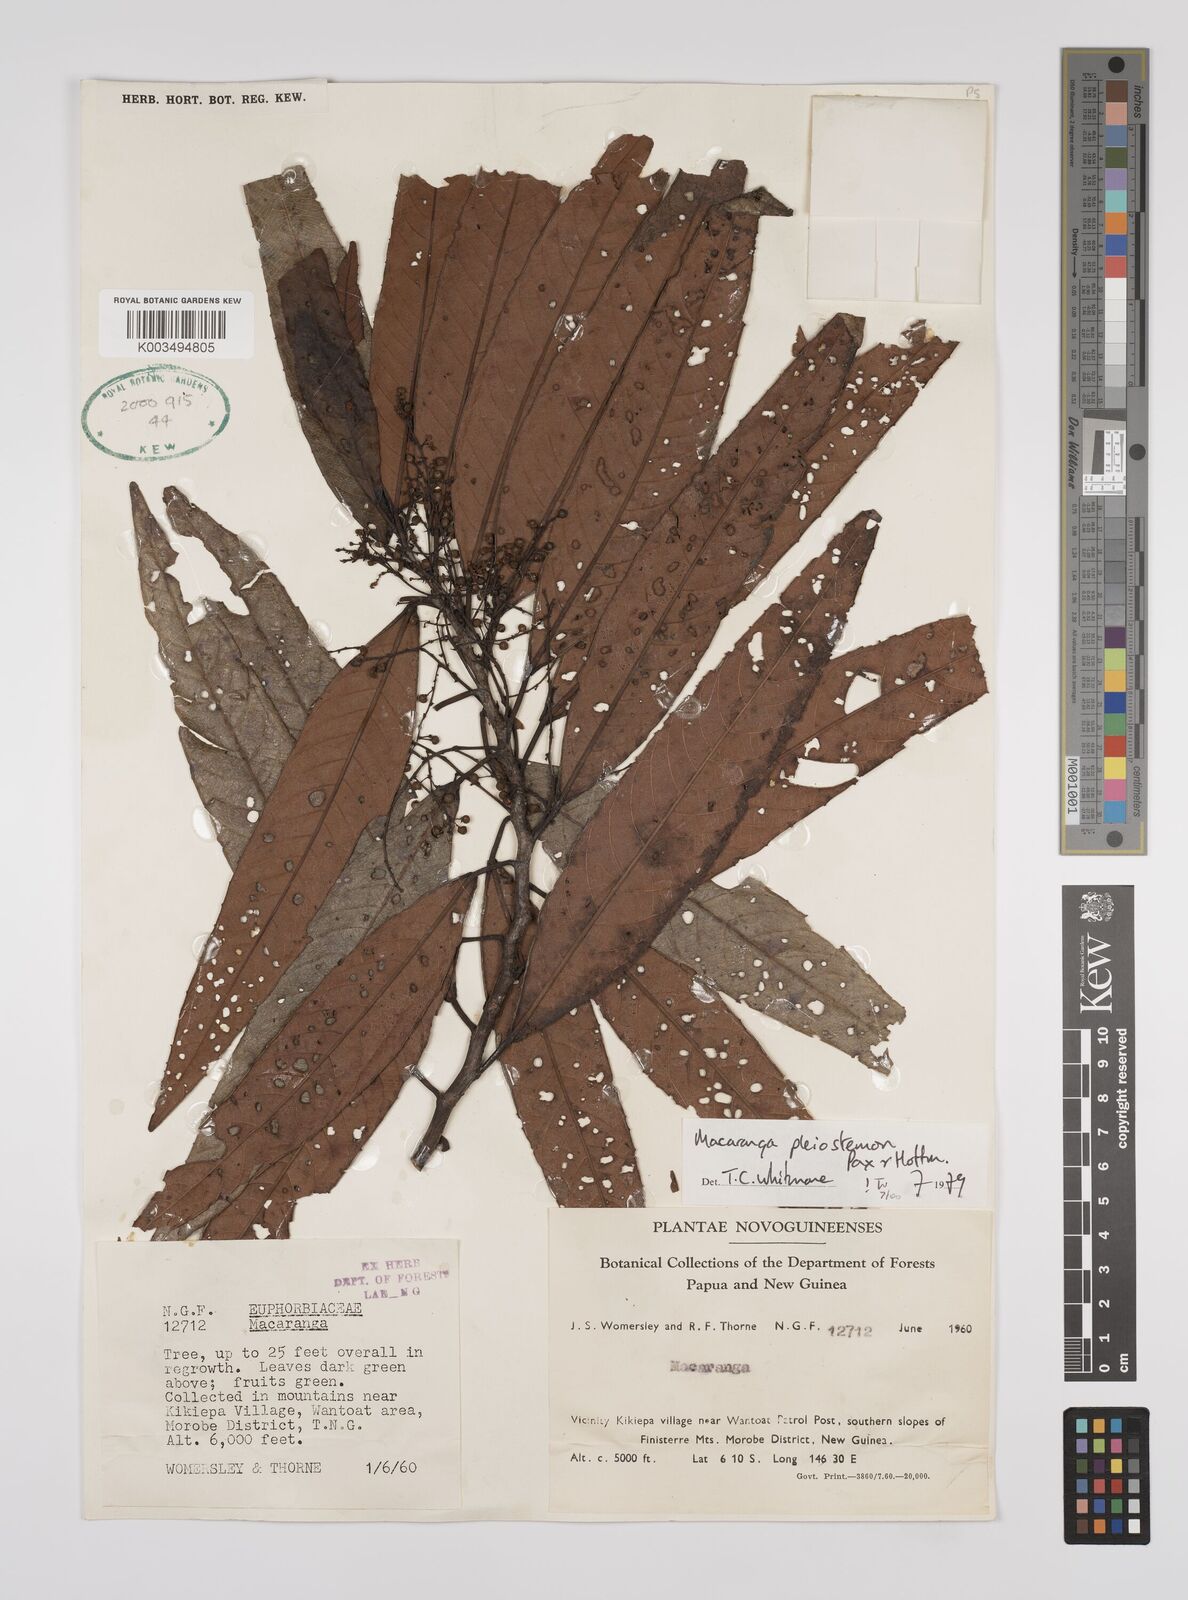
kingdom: Plantae
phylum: Tracheophyta
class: Magnoliopsida
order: Malpighiales
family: Euphorbiaceae
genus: Macaranga
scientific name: Macaranga pleiostemon
